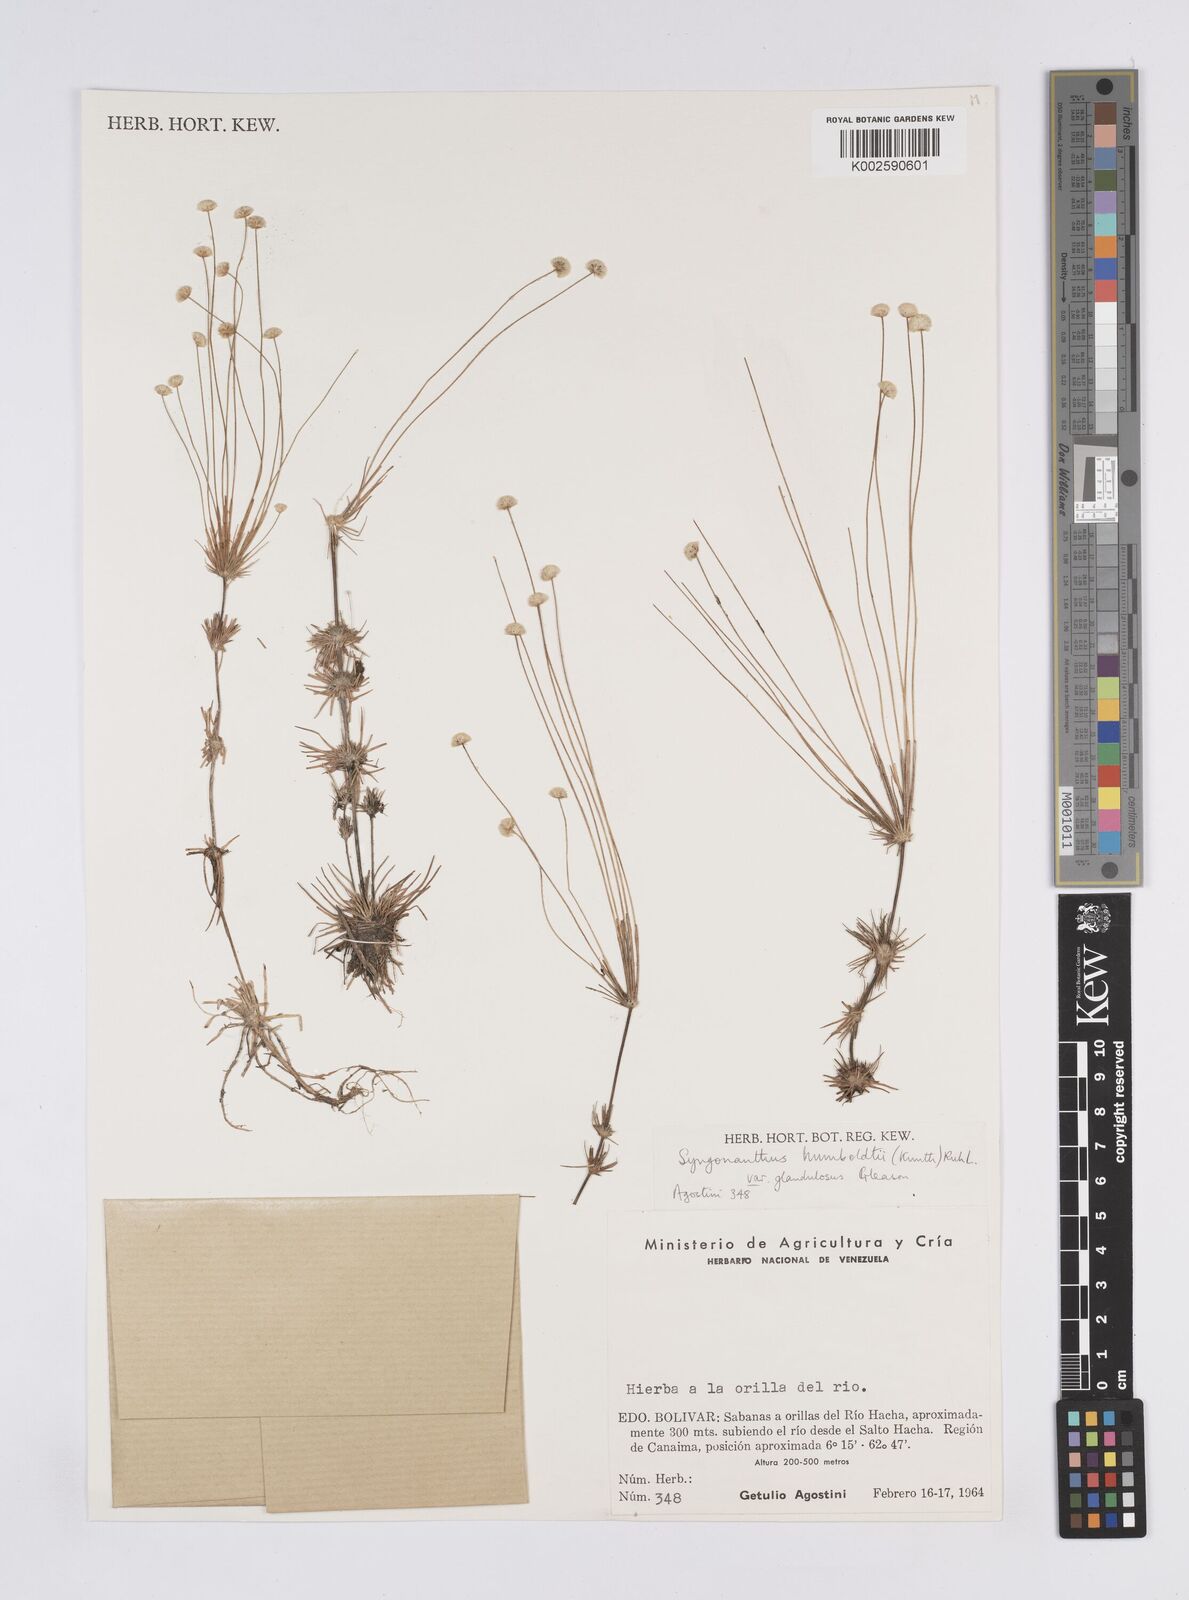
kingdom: Plantae
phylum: Tracheophyta
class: Liliopsida
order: Poales
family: Eriocaulaceae
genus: Syngonanthus
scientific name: Syngonanthus humboldtii
